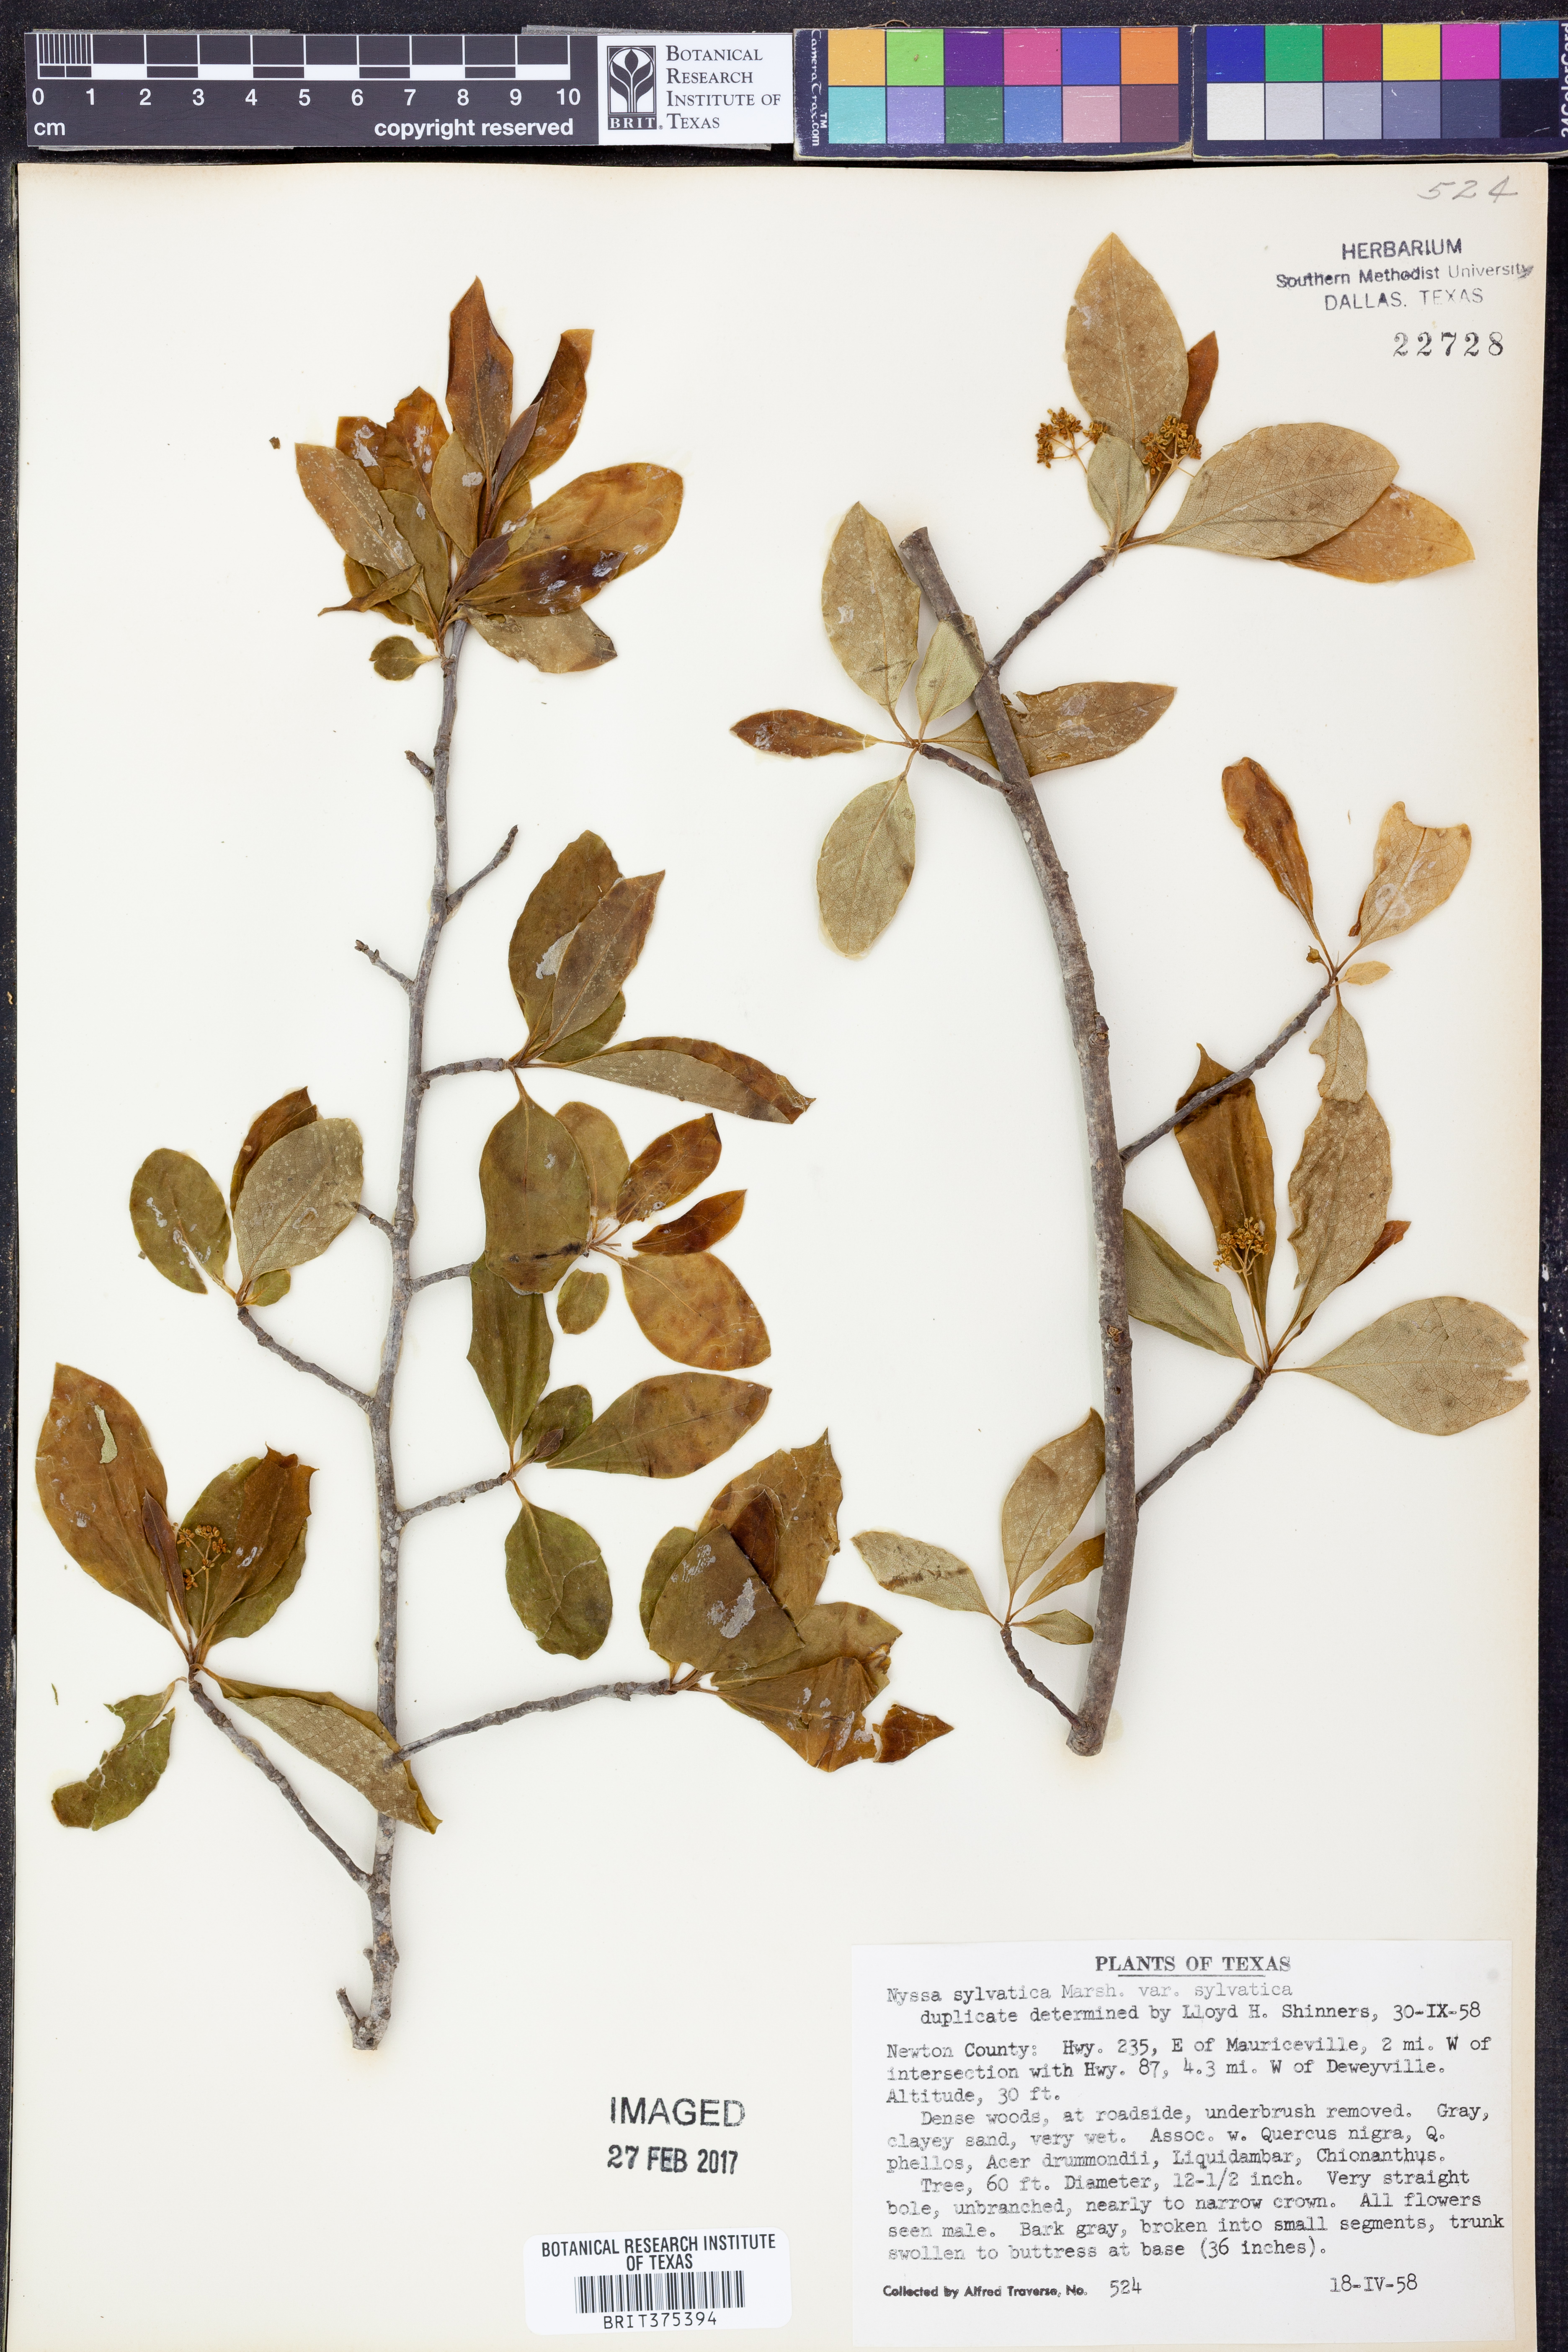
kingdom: Plantae
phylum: Tracheophyta
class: Magnoliopsida
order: Cornales
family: Nyssaceae
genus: Nyssa
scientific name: Nyssa sylvatica
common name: Black tupelo
